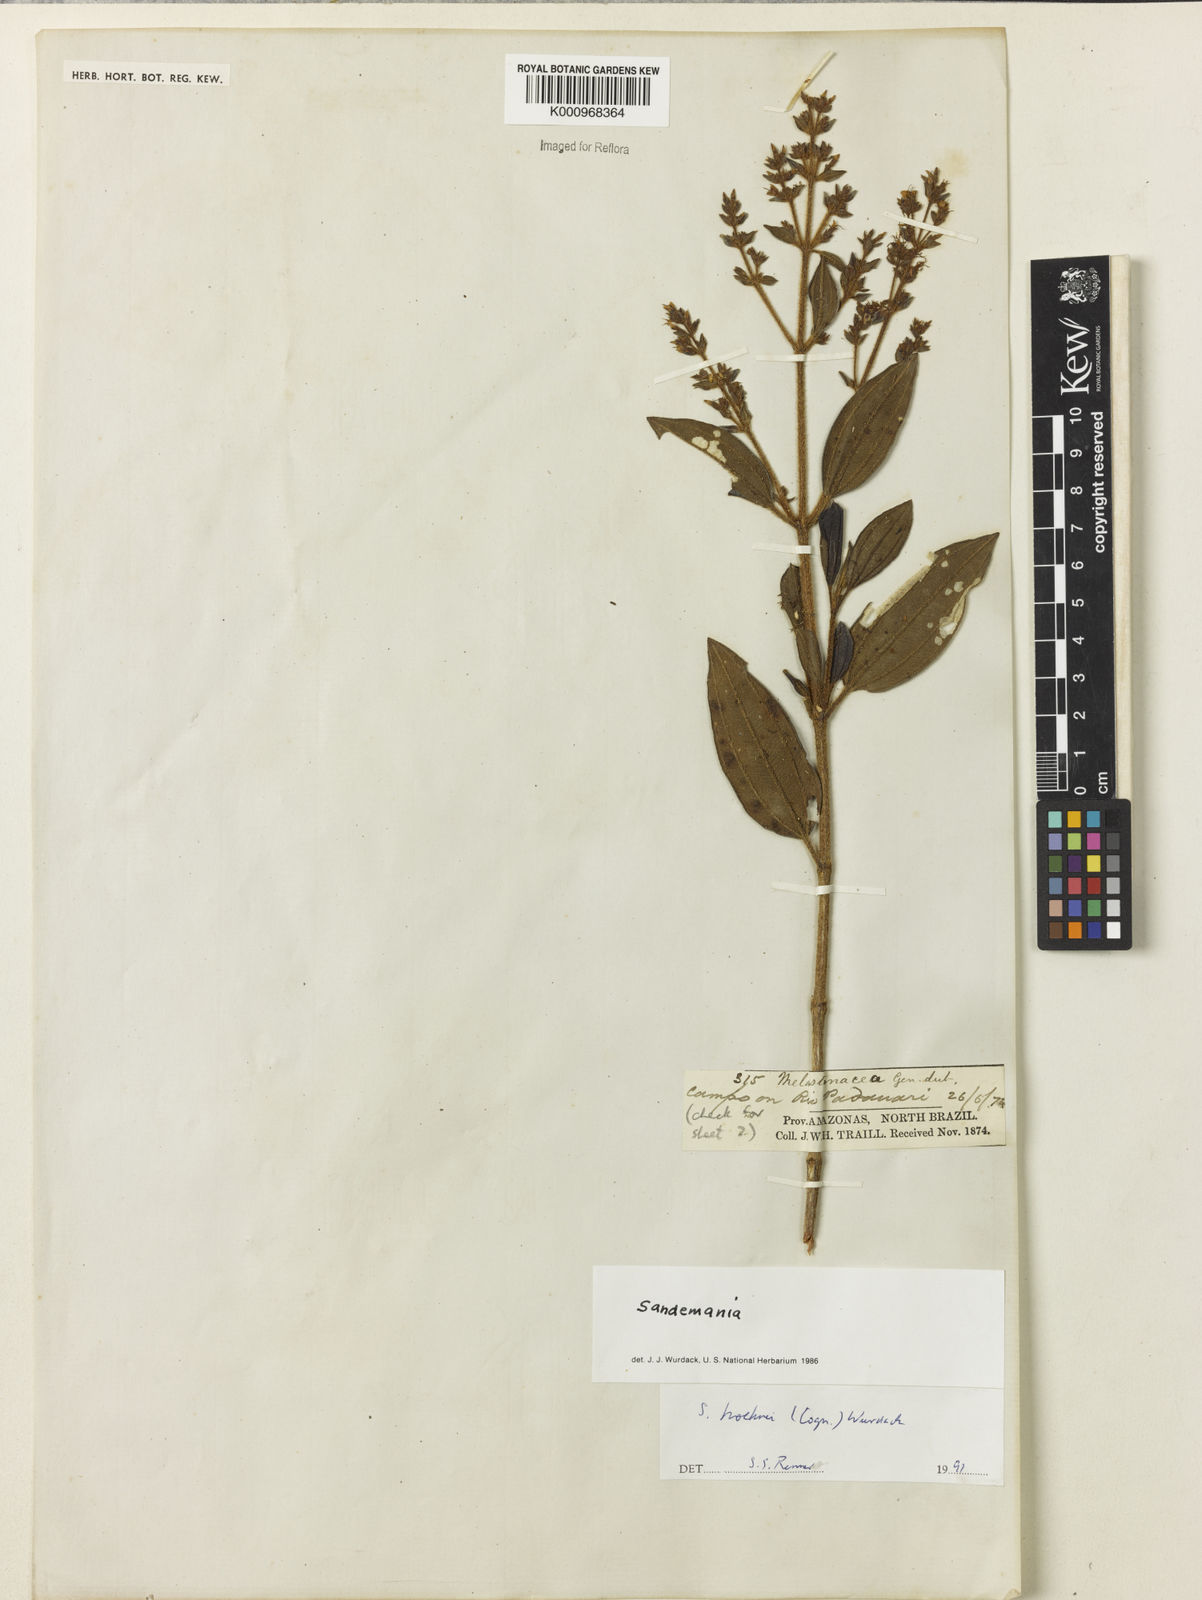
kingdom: Plantae
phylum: Tracheophyta
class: Magnoliopsida
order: Myrtales
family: Melastomataceae
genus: Sandemania
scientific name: Sandemania hoehnei
